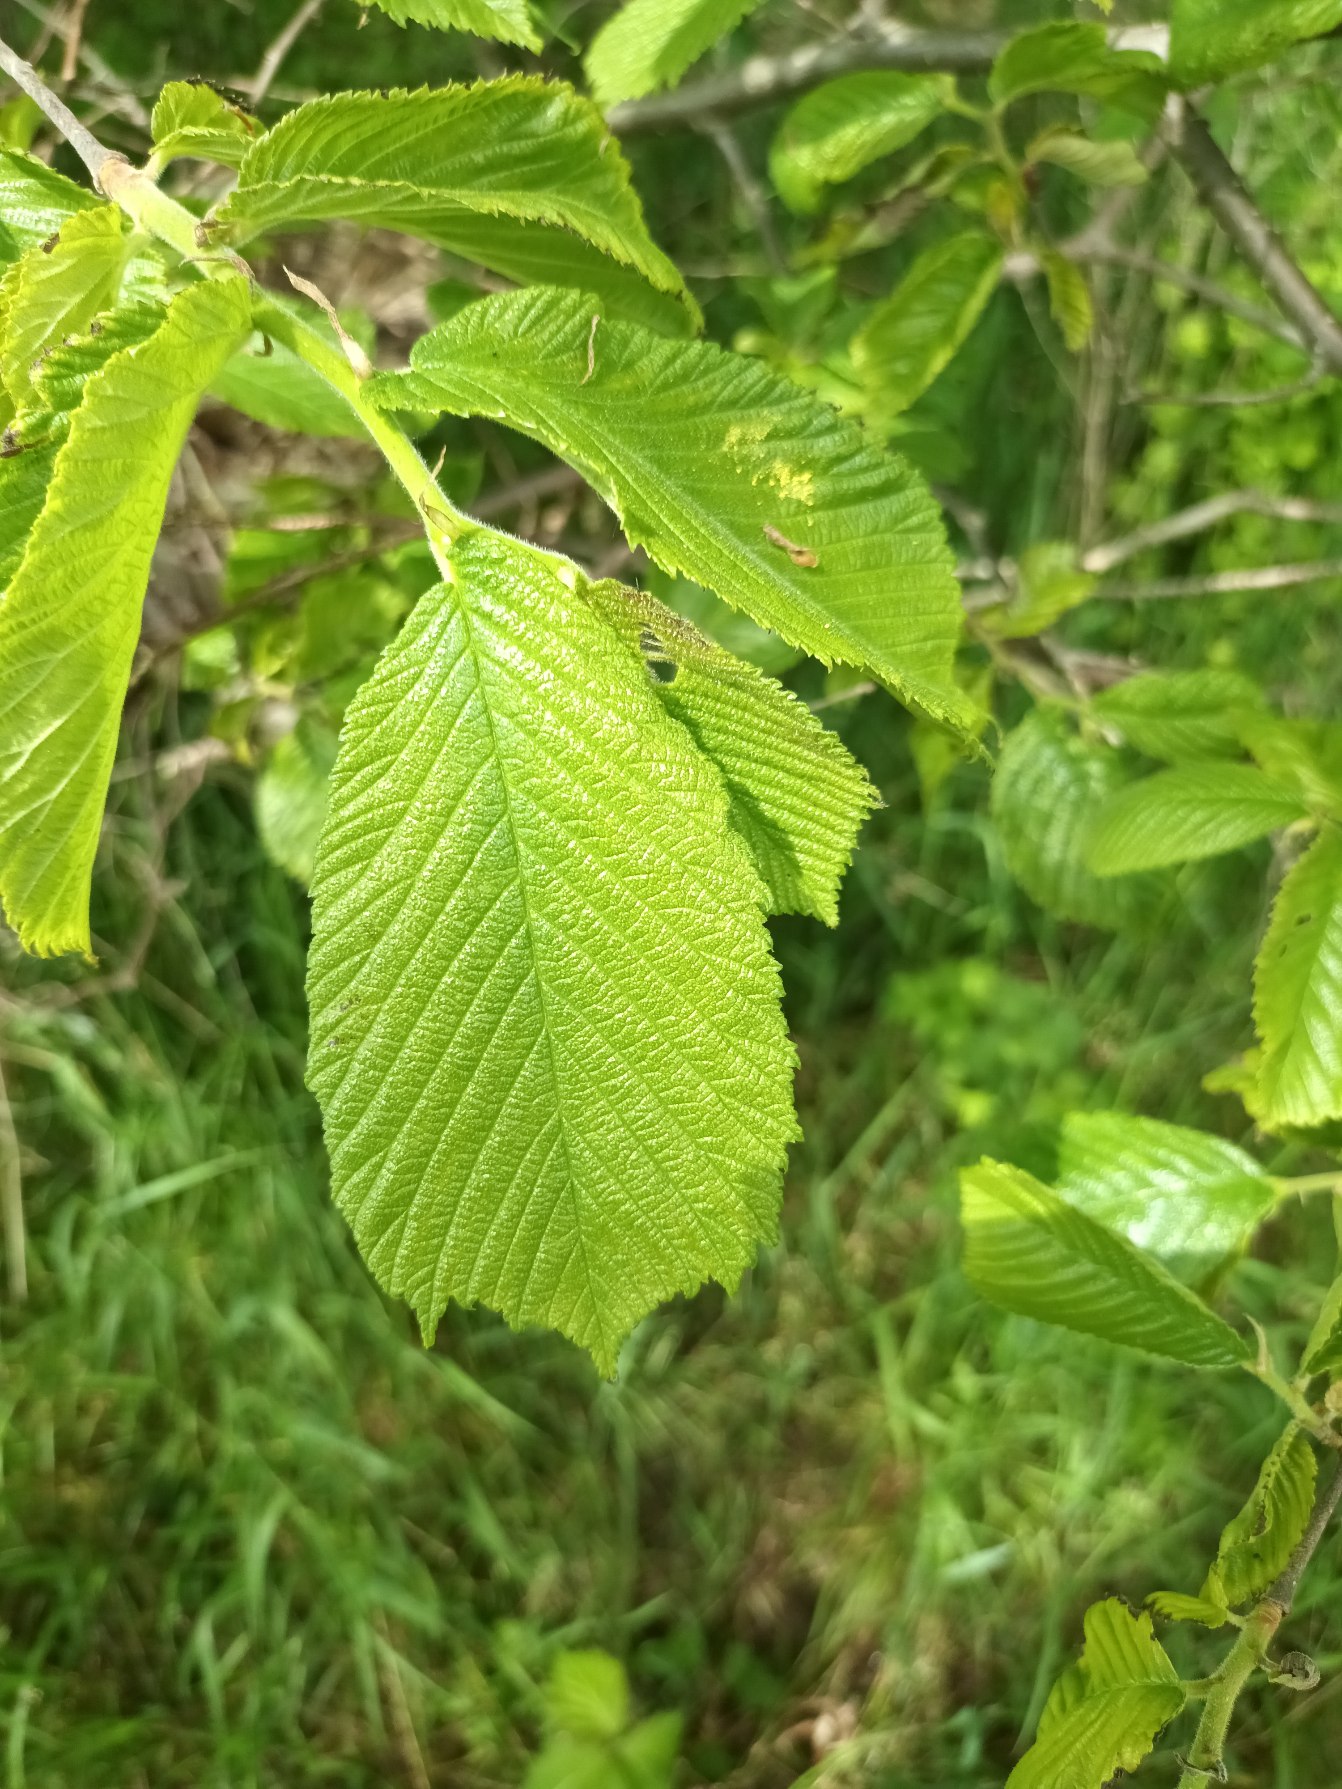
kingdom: Plantae
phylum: Tracheophyta
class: Magnoliopsida
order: Rosales
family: Ulmaceae
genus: Ulmus
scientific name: Ulmus glabra
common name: Skov-elm/storbladet elm
